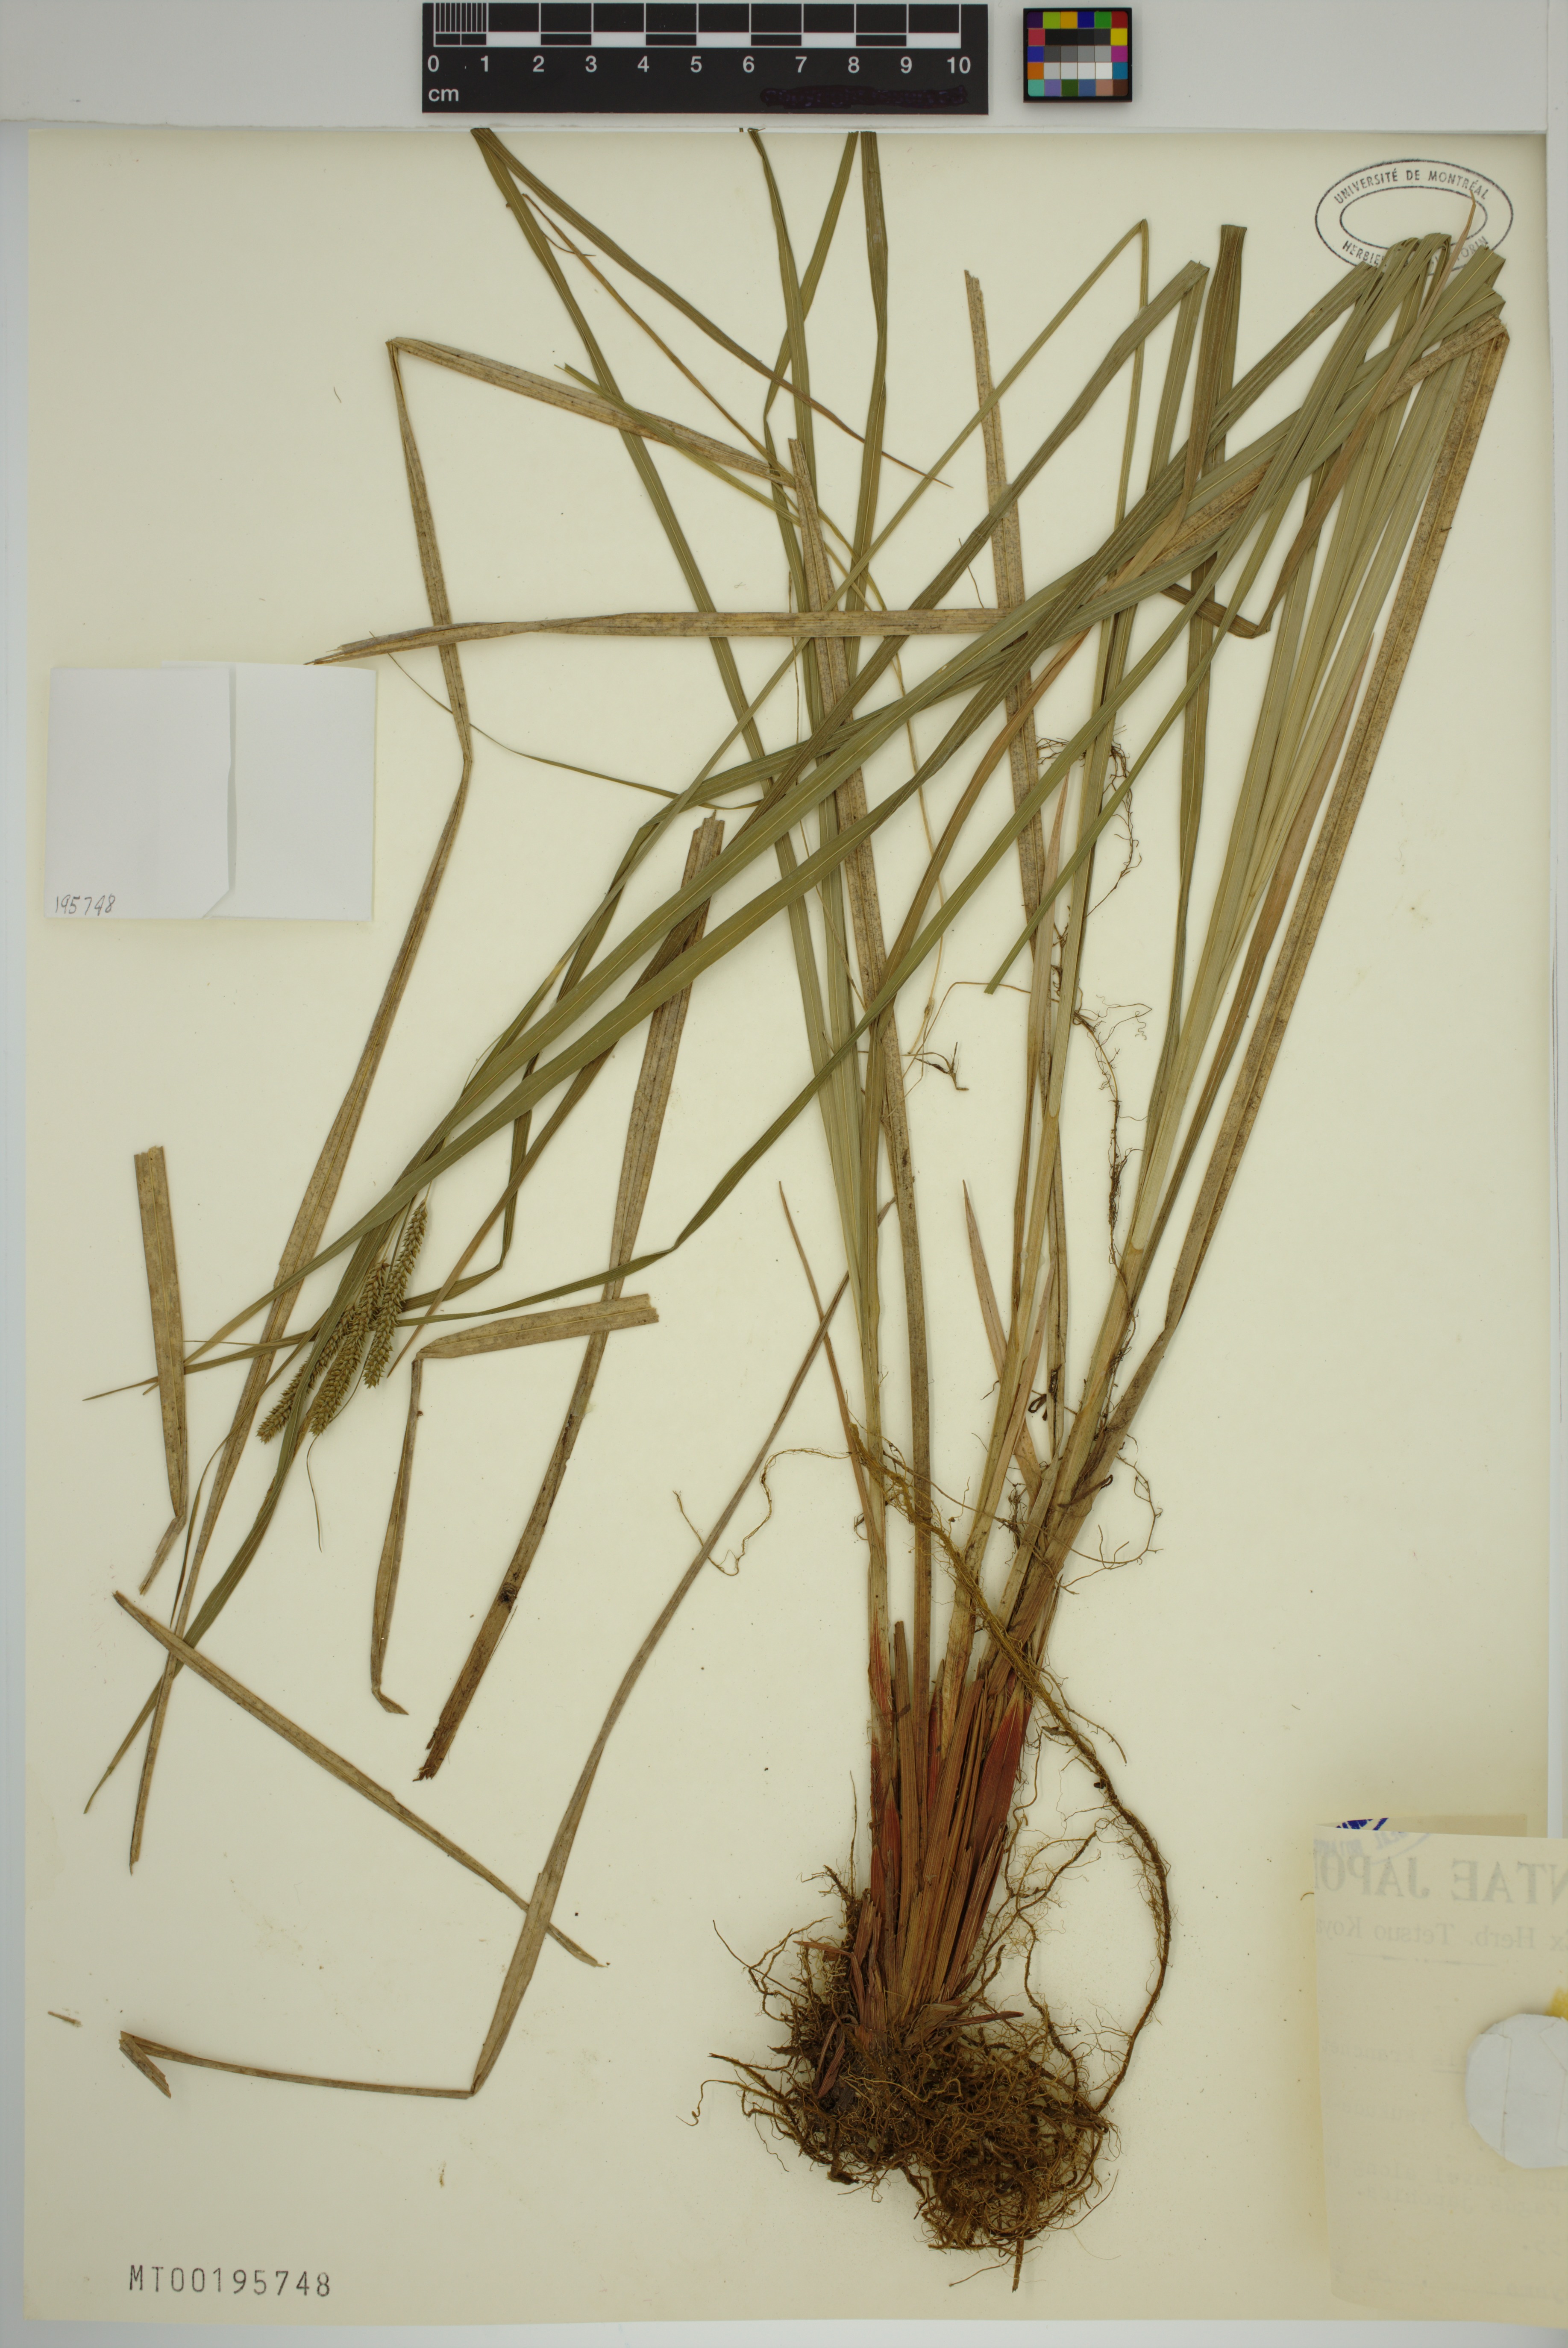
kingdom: Plantae
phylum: Tracheophyta
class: Liliopsida
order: Poales
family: Cyperaceae
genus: Carex
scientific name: Carex otaruensis
